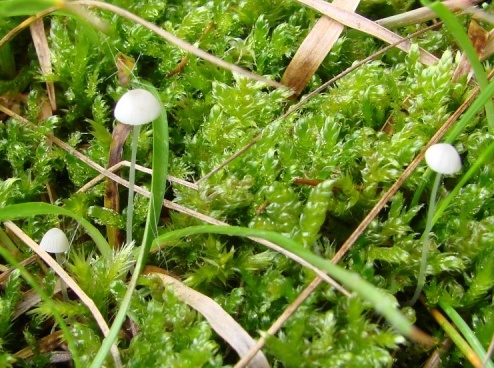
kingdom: Fungi
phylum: Basidiomycota
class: Agaricomycetes
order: Agaricales
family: Mycenaceae
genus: Mycena
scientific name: Mycena stylobates
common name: fureskivet huesvamp
